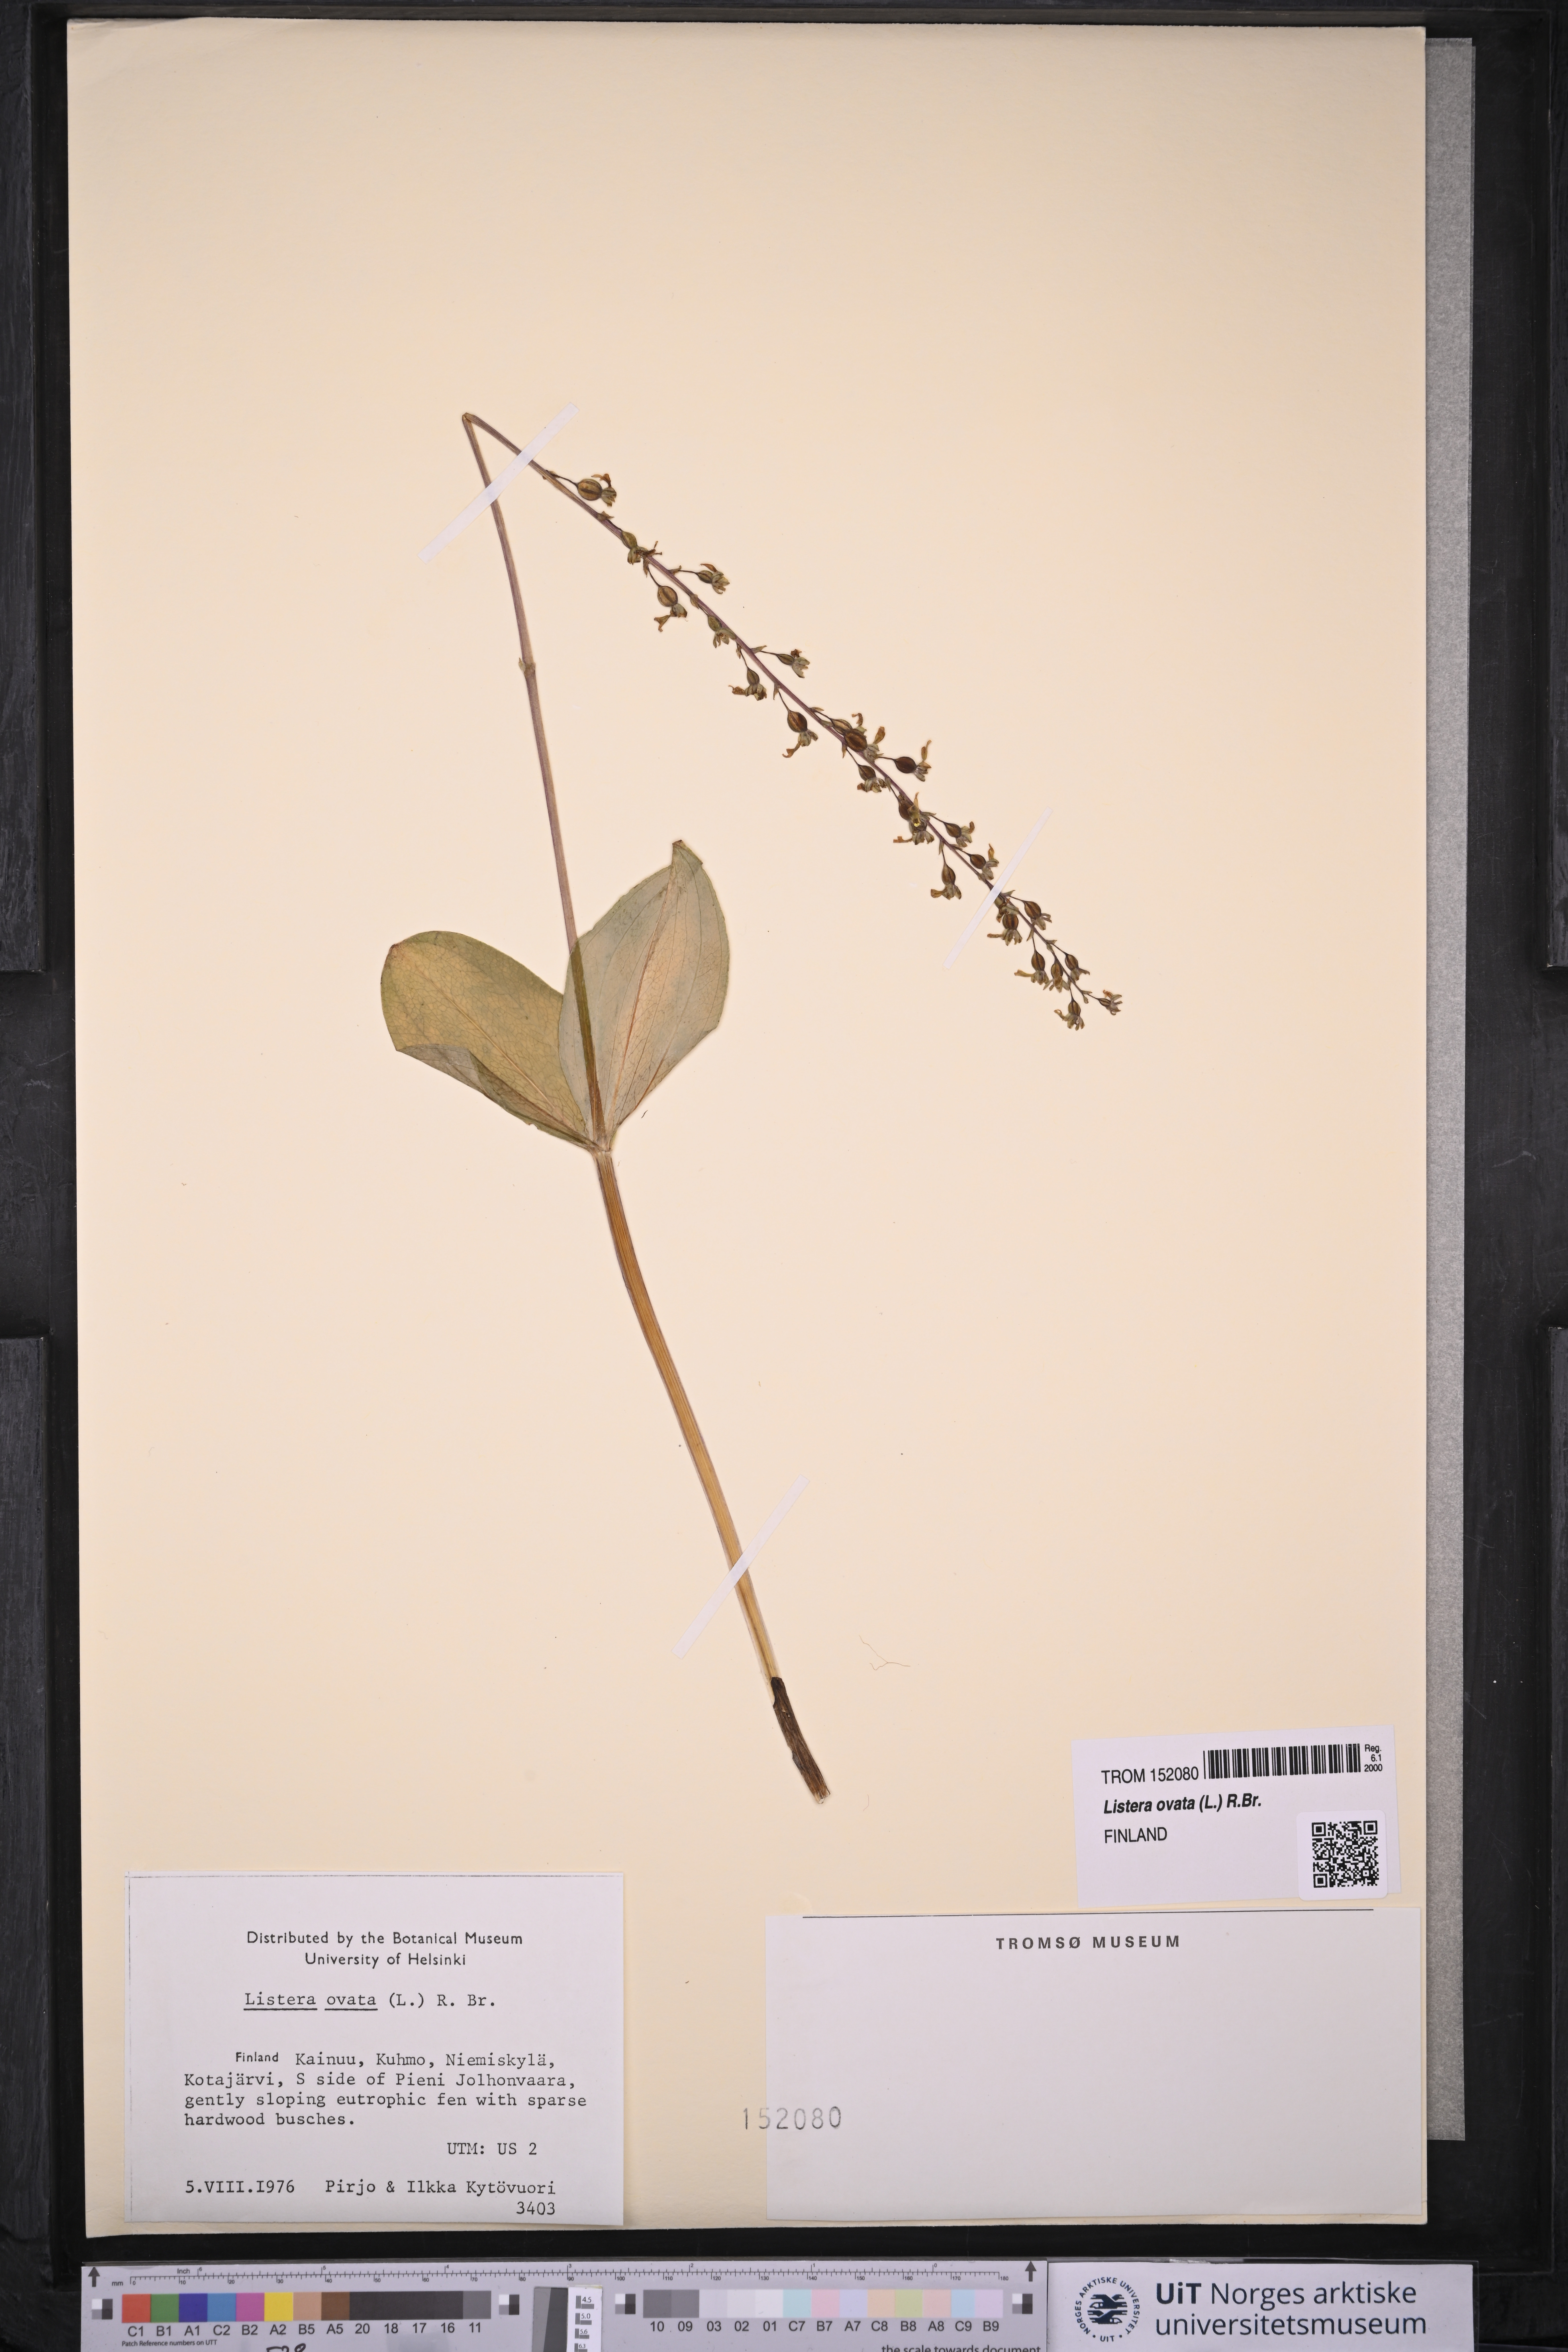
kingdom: Plantae
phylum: Tracheophyta
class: Liliopsida
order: Asparagales
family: Orchidaceae
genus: Neottia
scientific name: Neottia ovata
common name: Common twayblade
